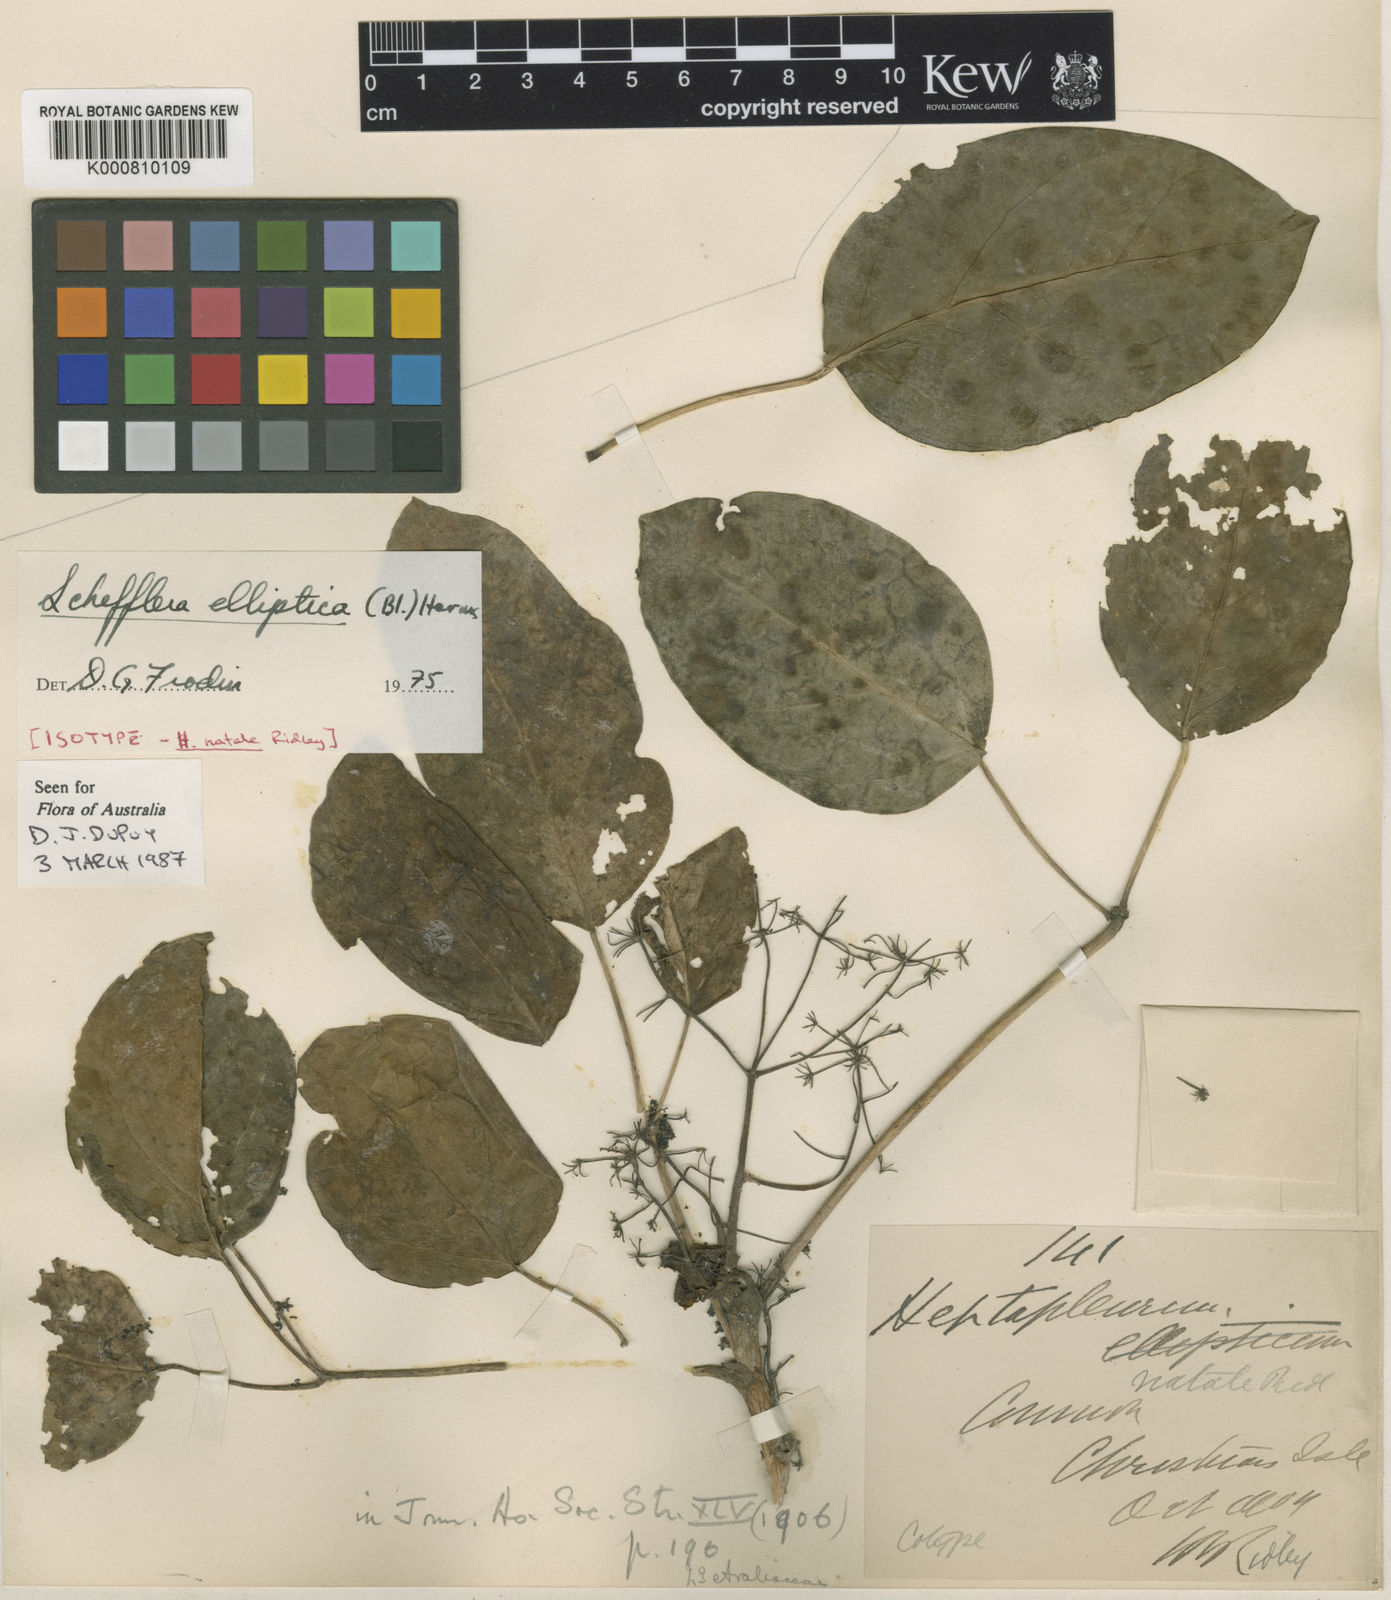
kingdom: Plantae
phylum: Tracheophyta
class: Magnoliopsida
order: Apiales
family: Araliaceae
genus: Heptapleurum
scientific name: Heptapleurum ellipticum
